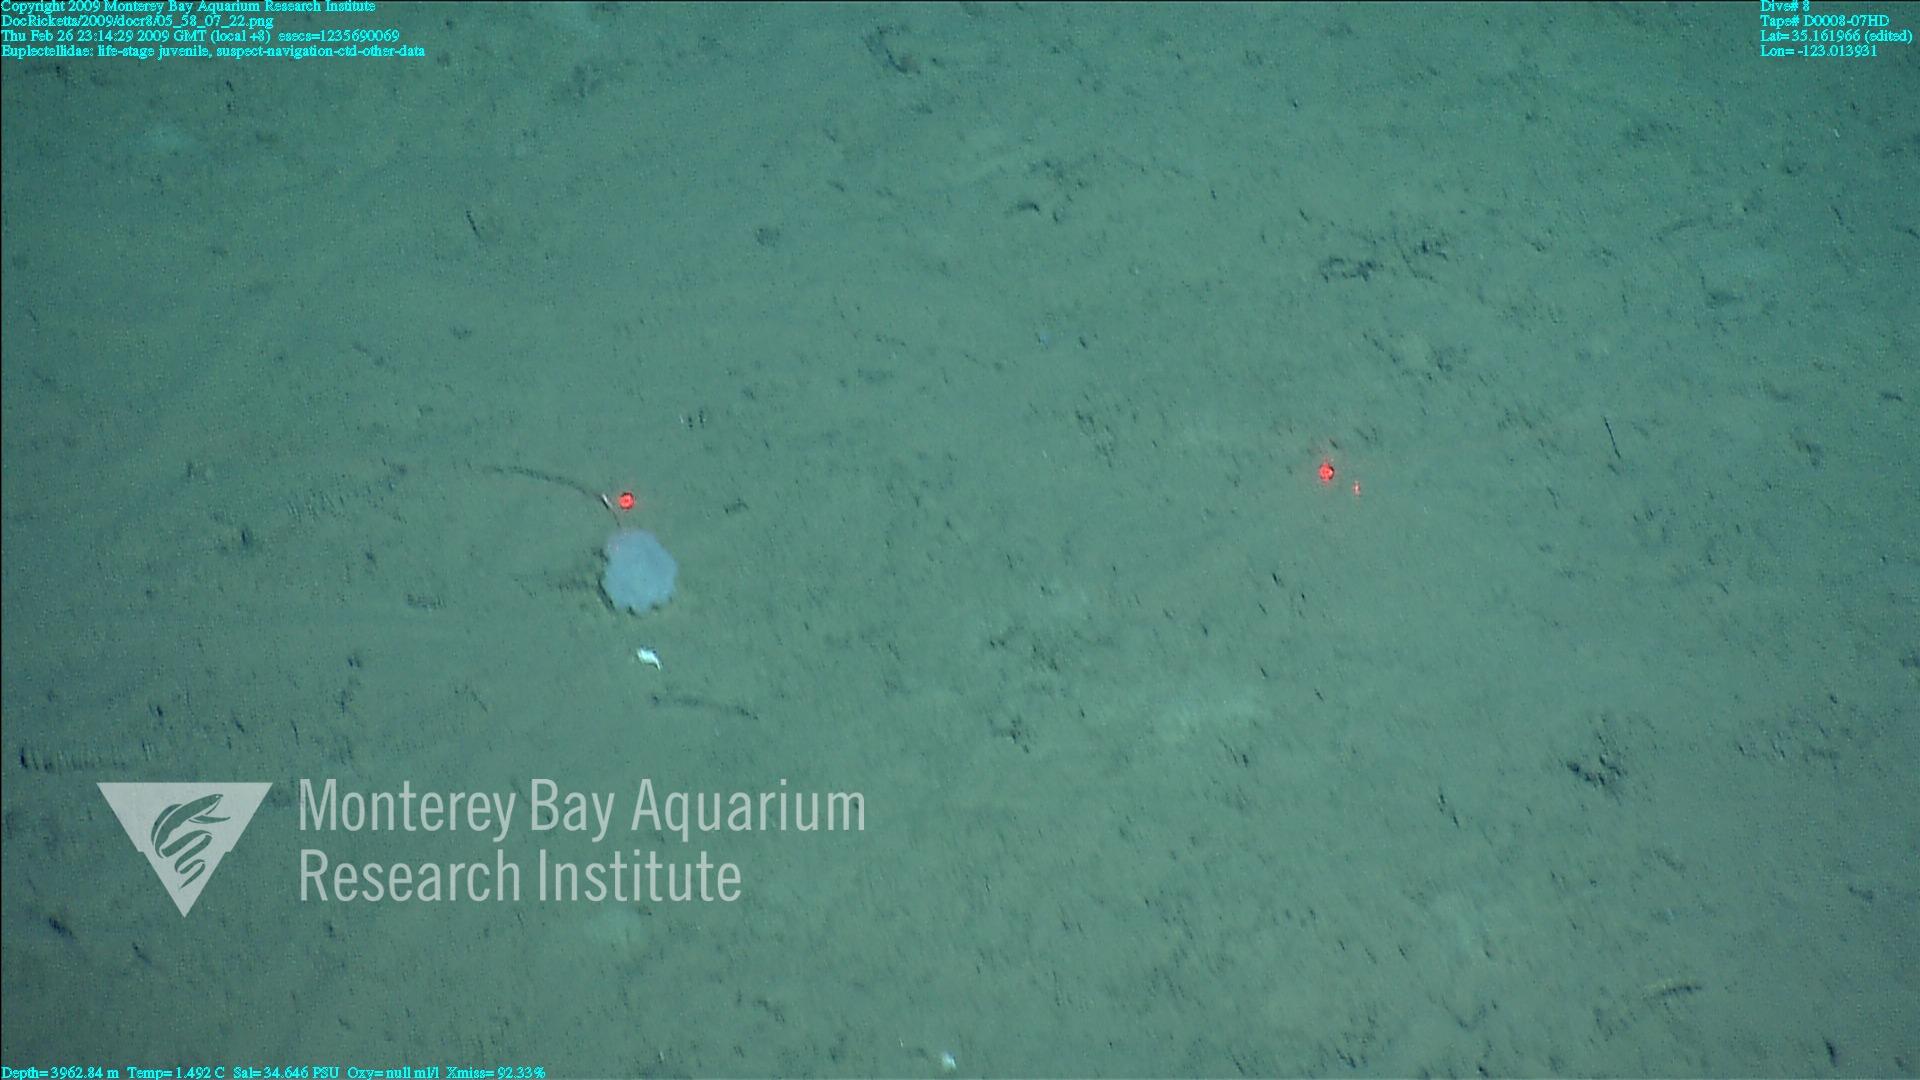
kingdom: Animalia
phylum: Porifera
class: Hexactinellida
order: Lyssacinosida
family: Euplectellidae
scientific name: Euplectellidae
